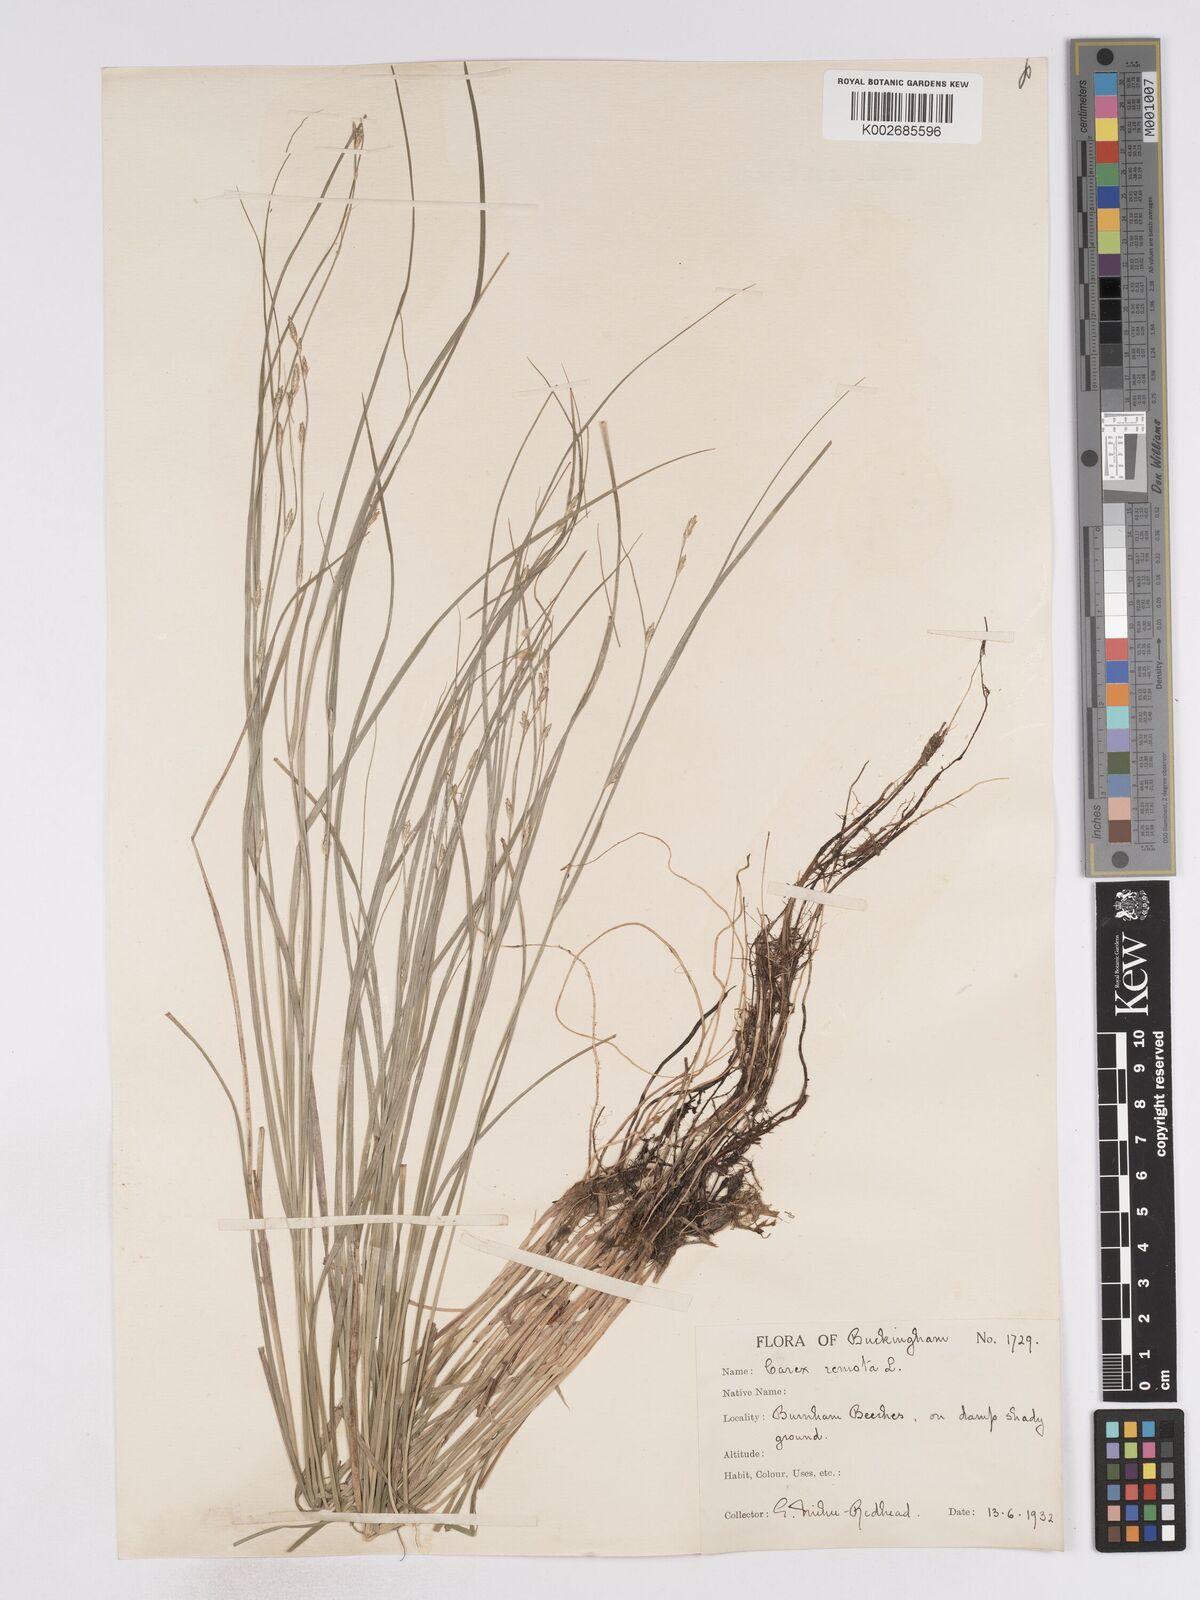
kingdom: Plantae
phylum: Tracheophyta
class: Liliopsida
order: Poales
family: Cyperaceae
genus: Carex
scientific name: Carex remota
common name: Remote sedge
